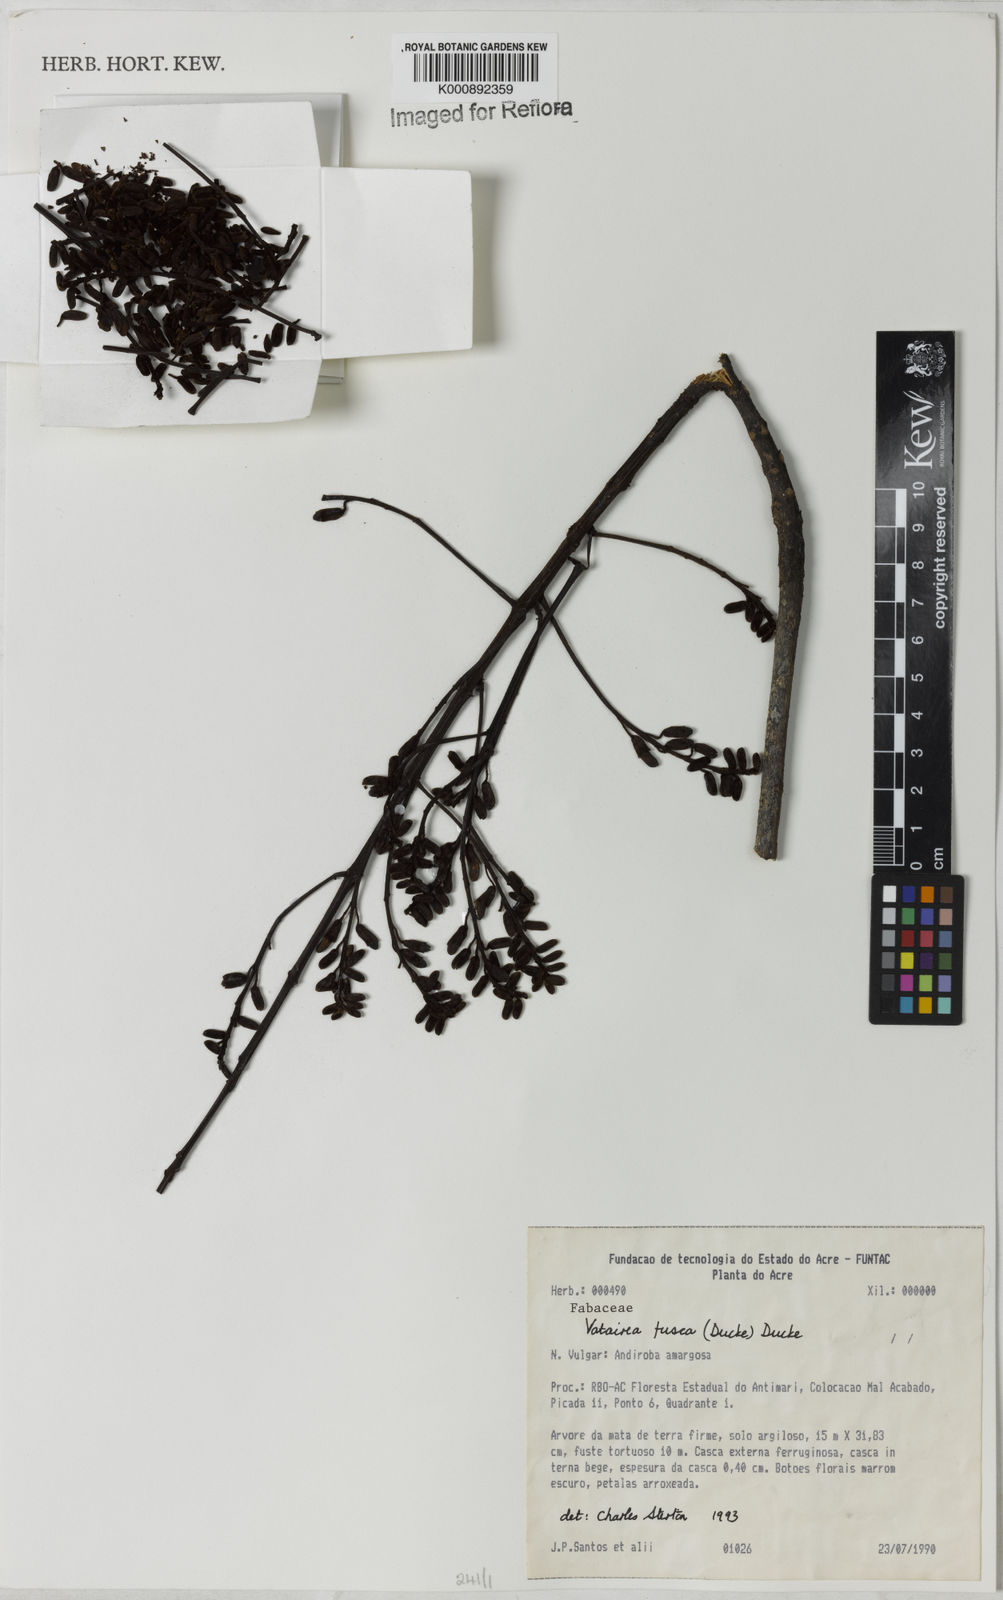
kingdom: Plantae
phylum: Tracheophyta
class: Magnoliopsida
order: Fabales
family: Fabaceae
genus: Vatairea
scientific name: Vatairea fusca
